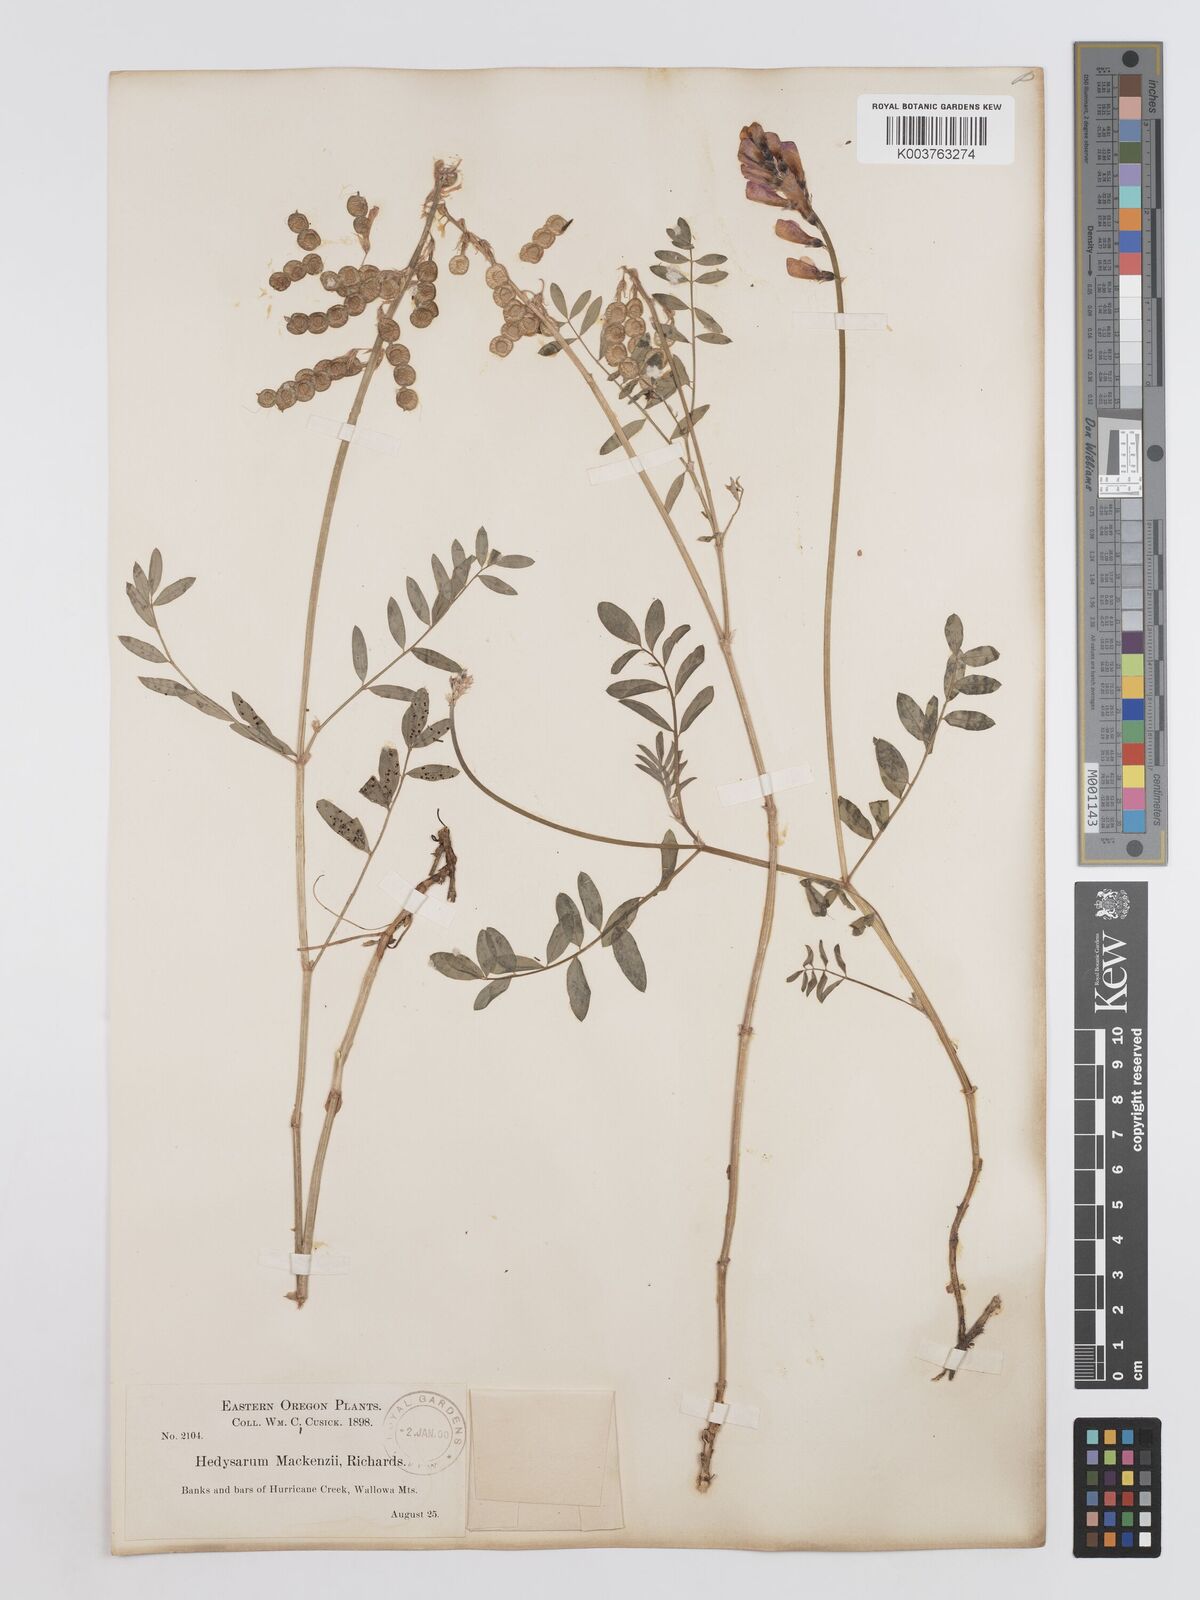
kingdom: Plantae
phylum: Tracheophyta
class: Magnoliopsida
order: Fabales
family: Fabaceae
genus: Hedysarum
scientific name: Hedysarum boreale
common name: Northern sweet-vetch
